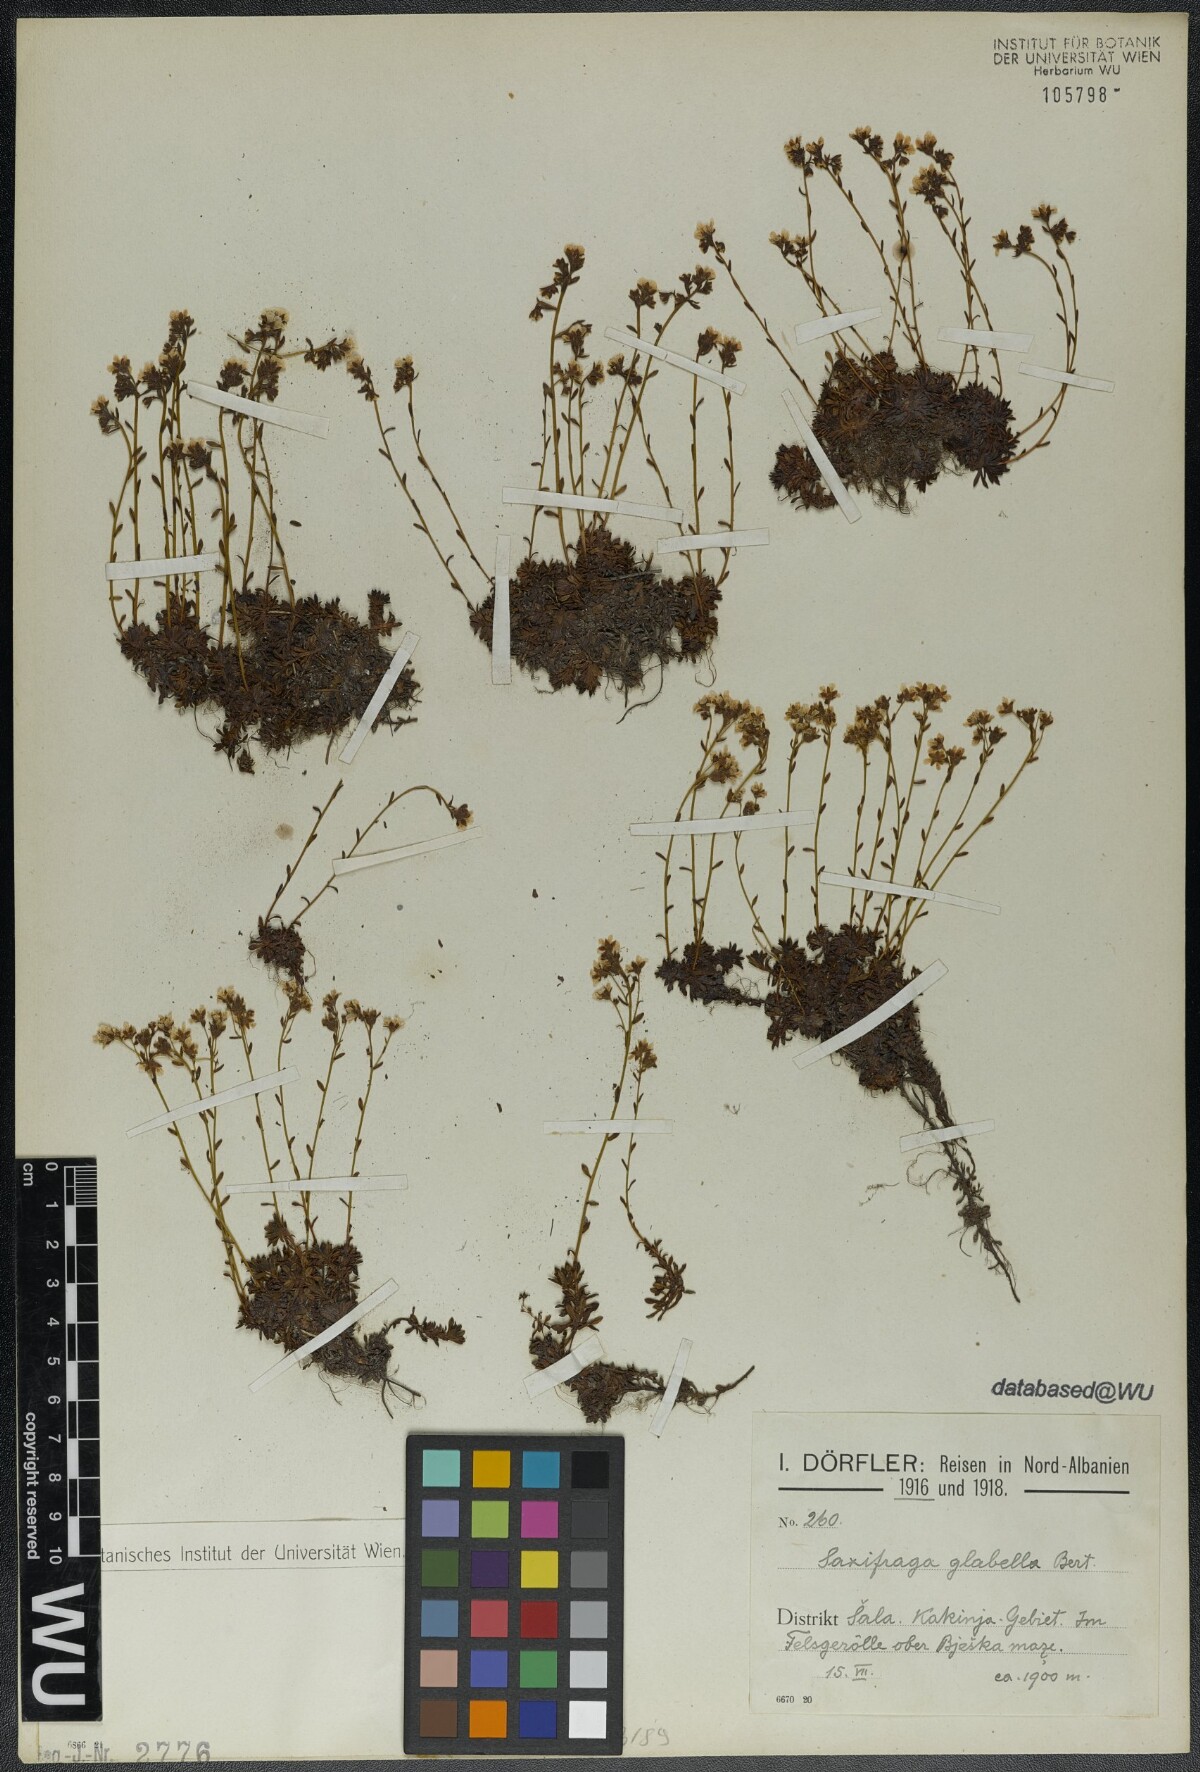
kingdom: Plantae
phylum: Tracheophyta
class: Magnoliopsida
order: Saxifragales
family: Saxifragaceae
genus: Saxifraga
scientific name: Saxifraga glabella
